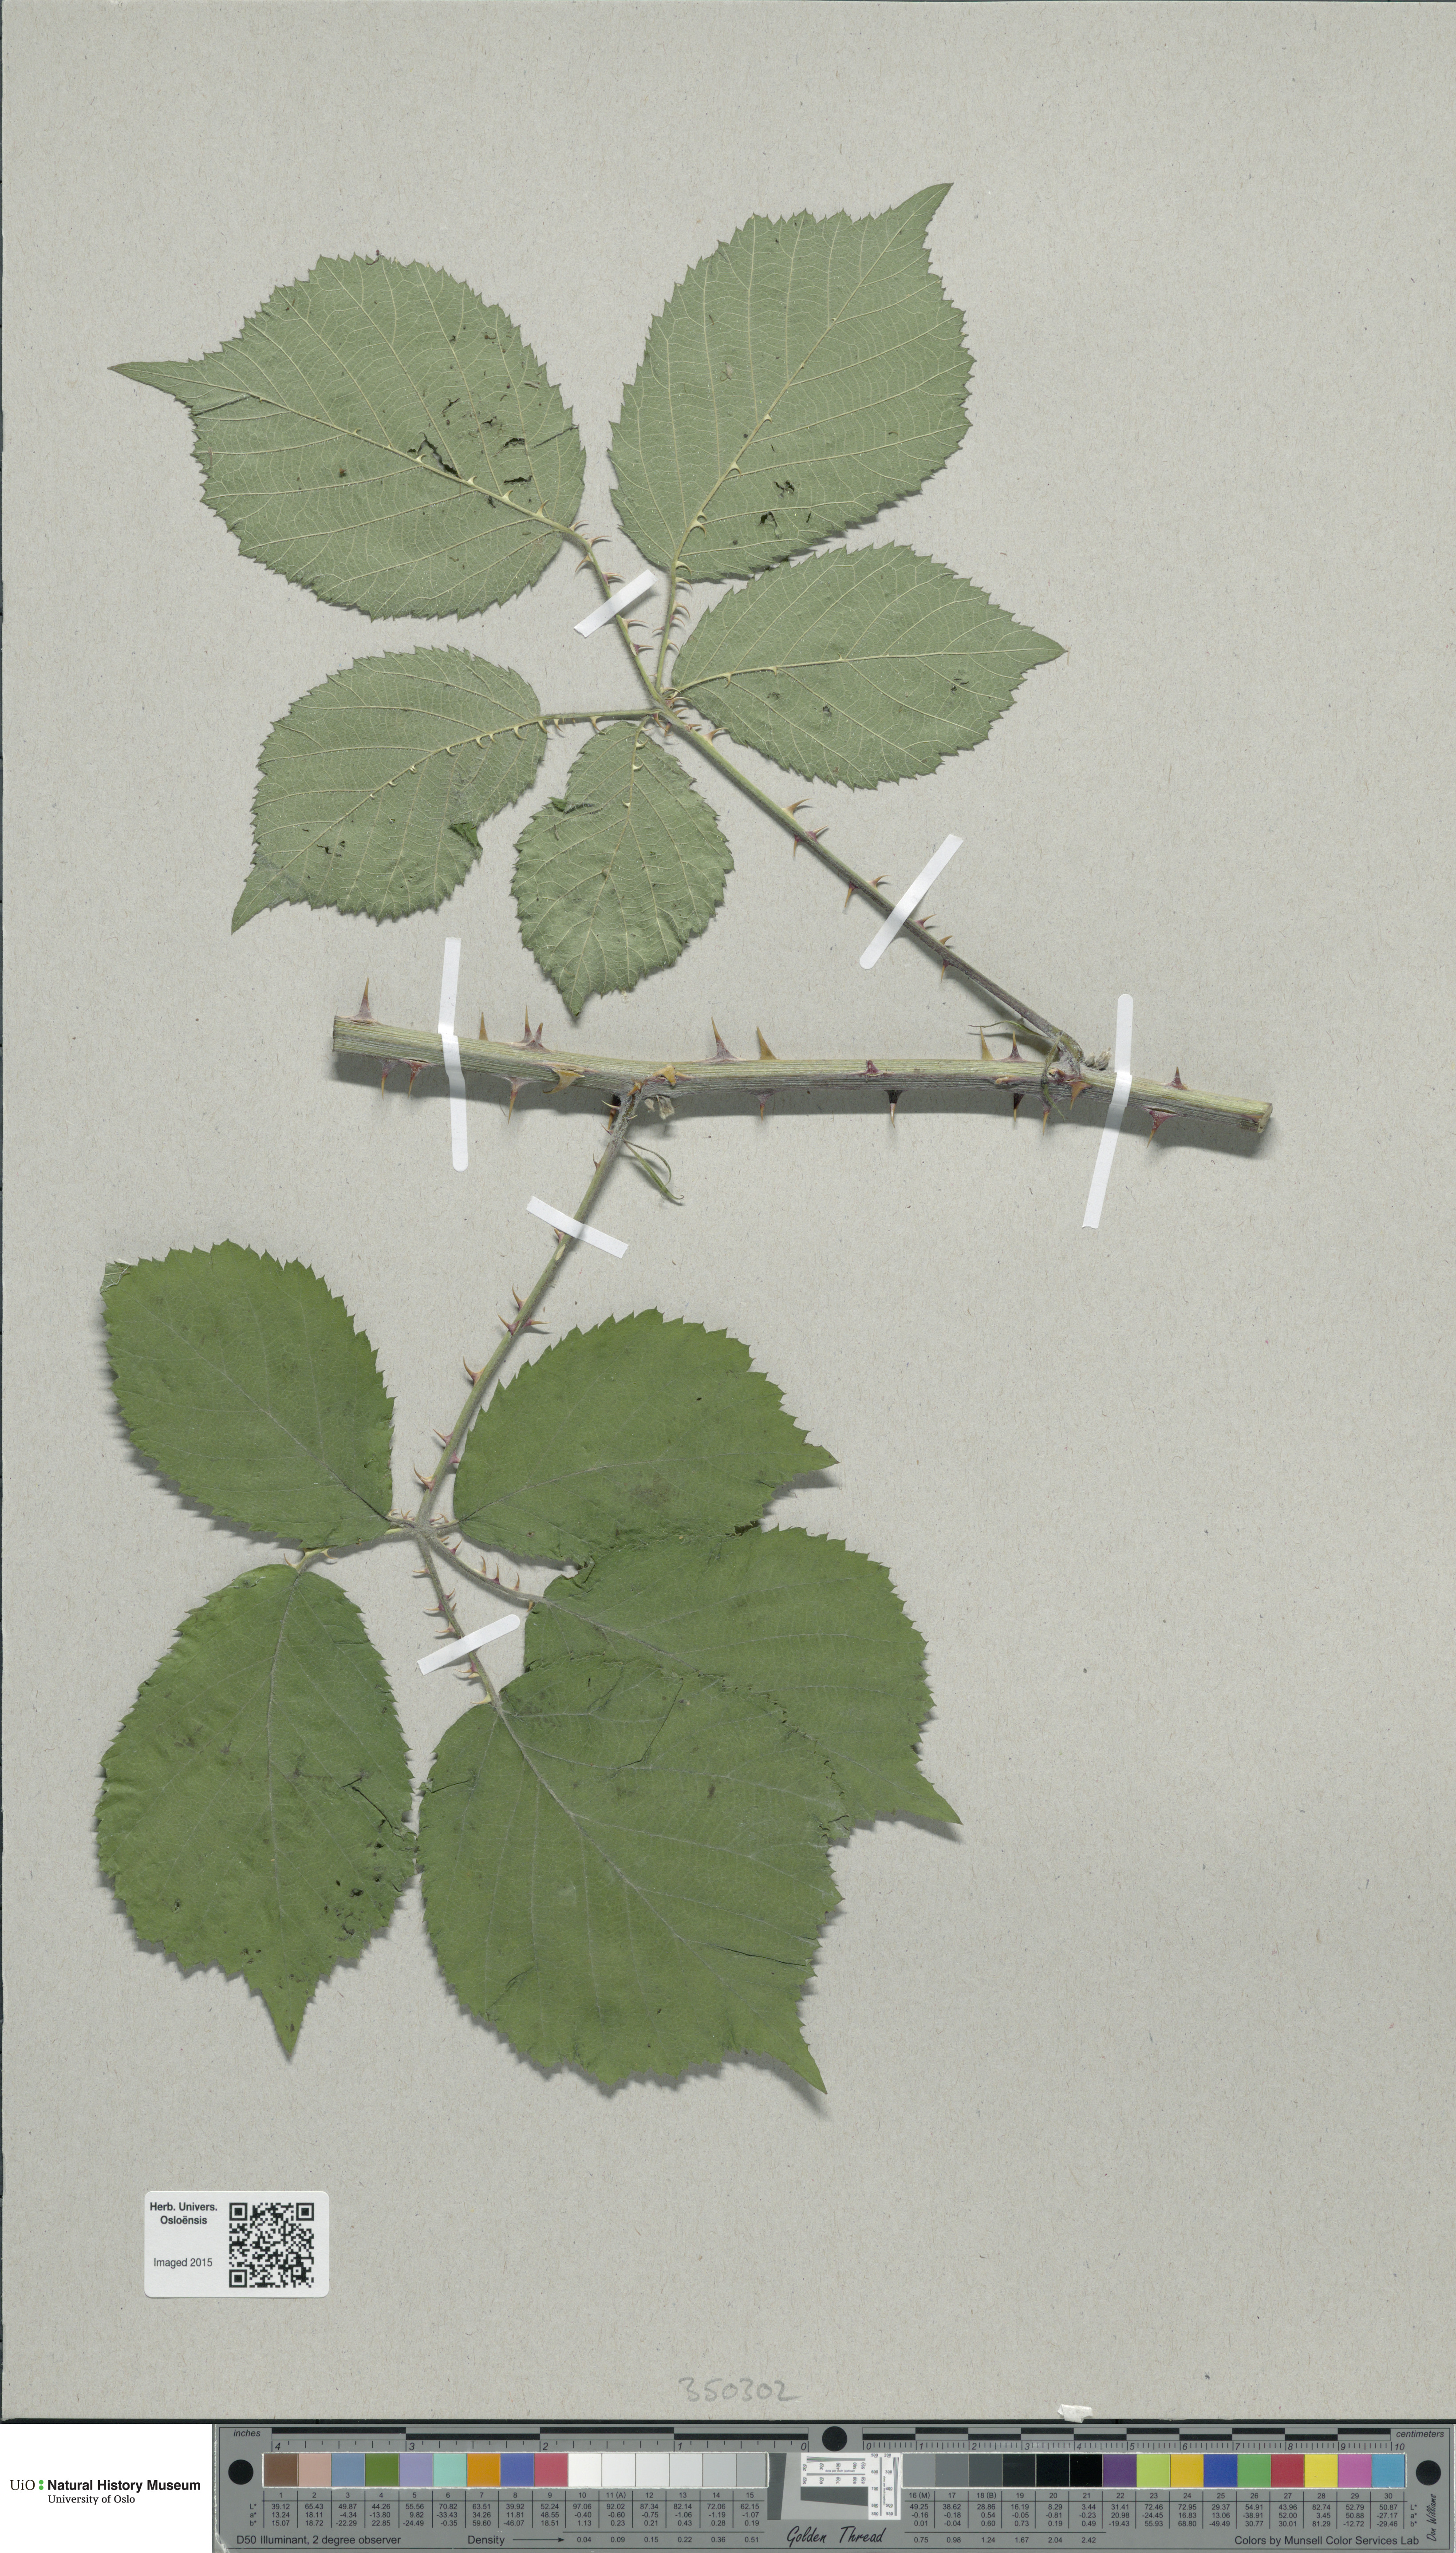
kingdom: Plantae
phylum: Tracheophyta
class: Magnoliopsida
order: Rosales
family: Rosaceae
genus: Rubus
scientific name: Rubus lindleyanus
